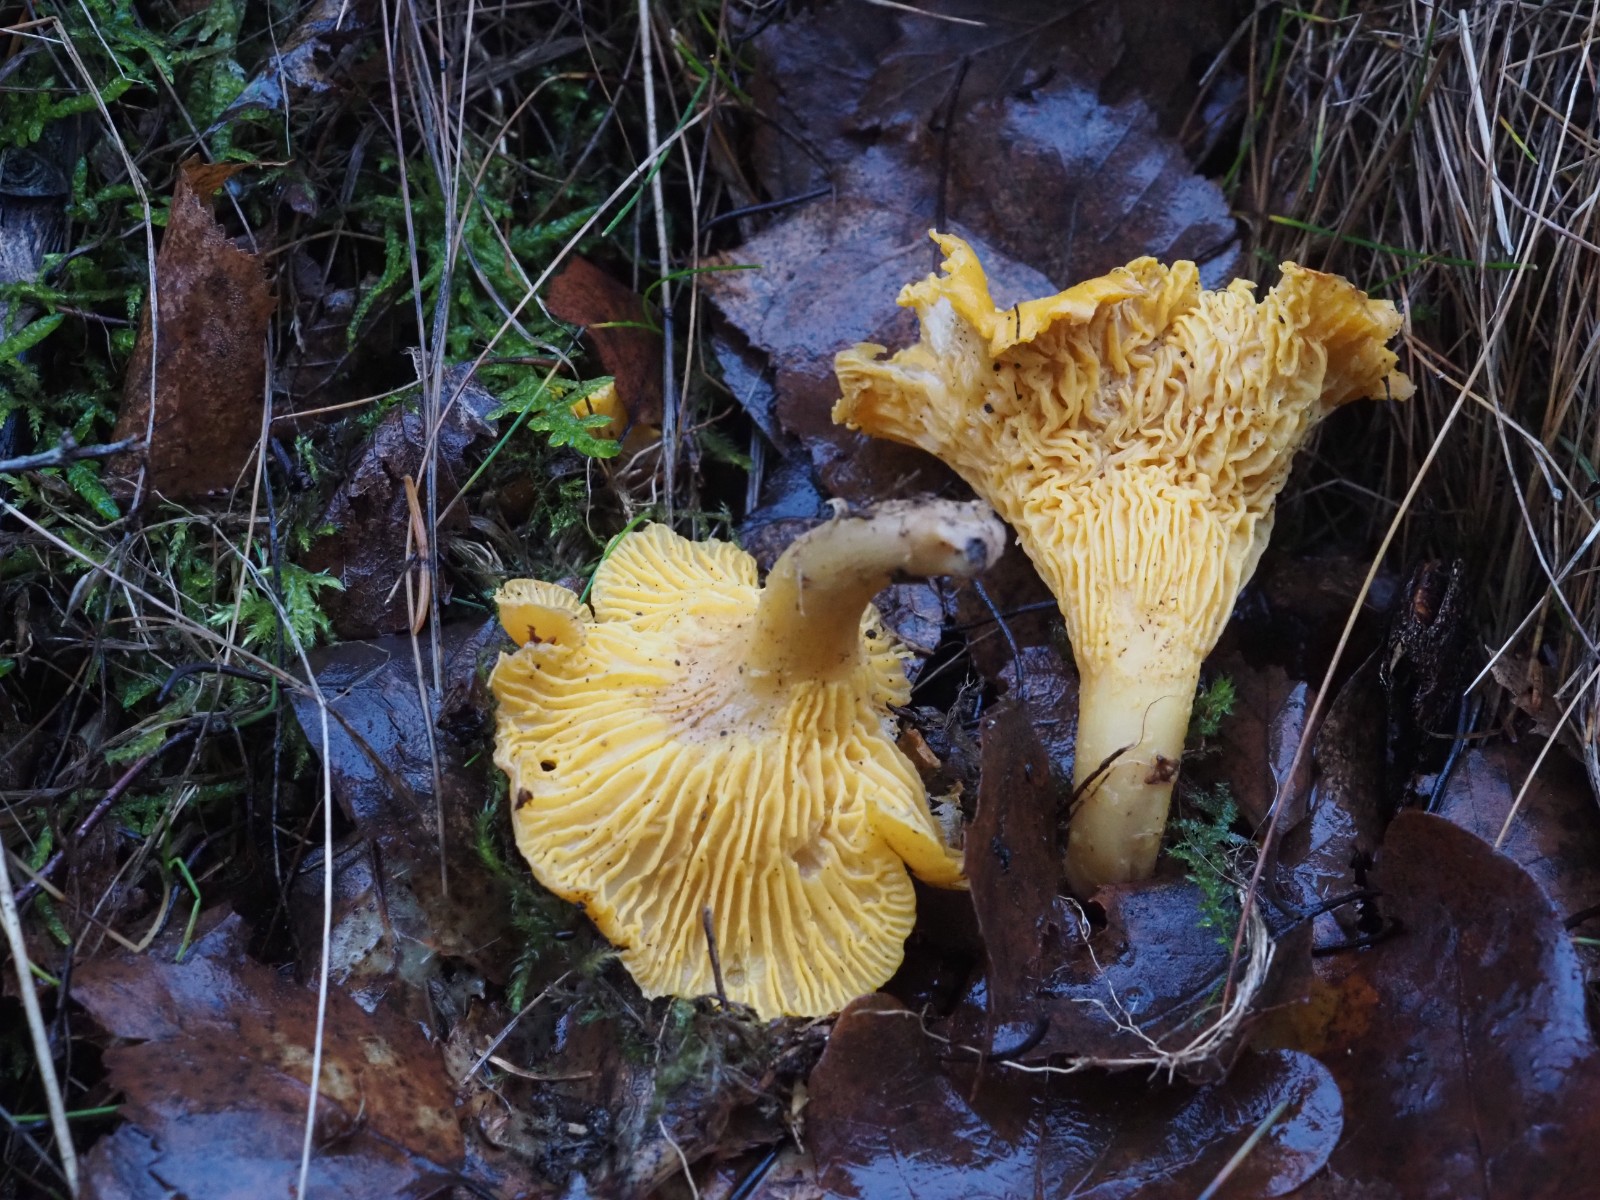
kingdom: Fungi
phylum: Basidiomycota
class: Agaricomycetes
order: Cantharellales
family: Hydnaceae
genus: Cantharellus
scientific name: Cantharellus cibarius
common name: almindelig kantarel
